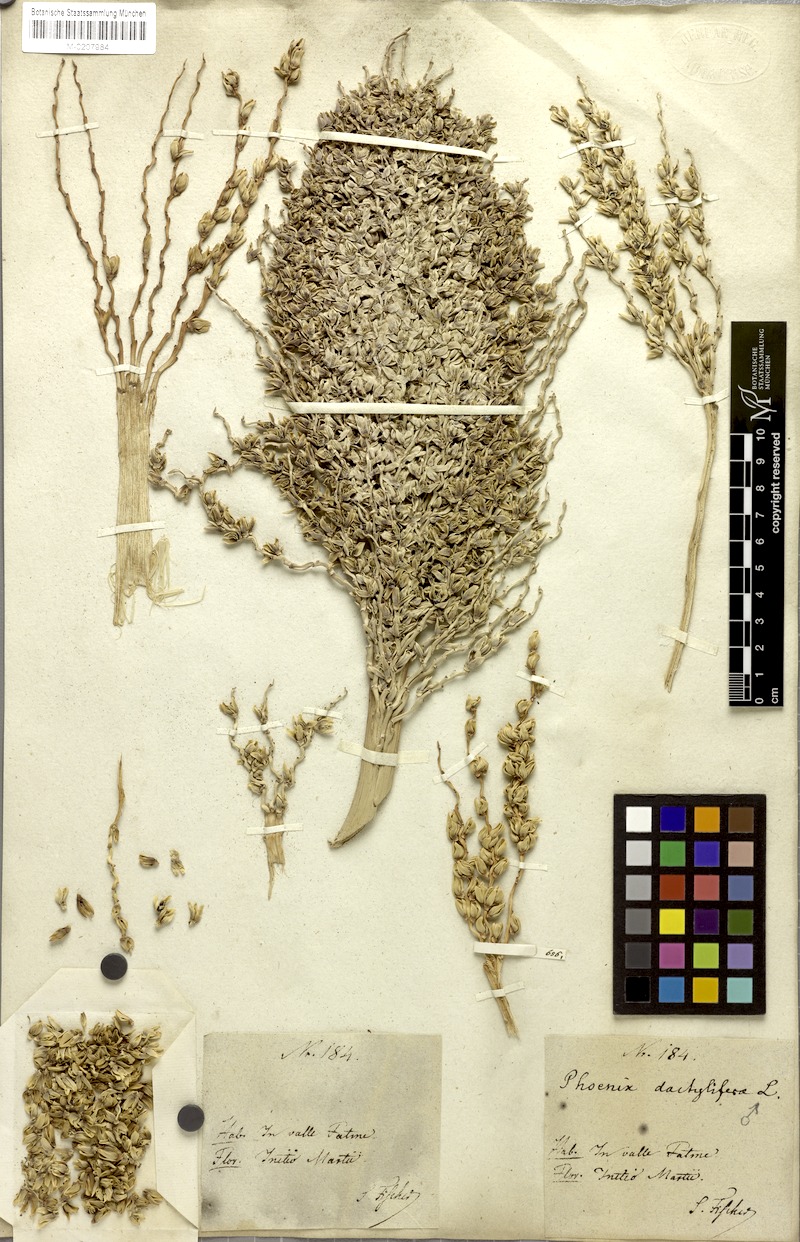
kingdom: Plantae
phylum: Tracheophyta
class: Liliopsida
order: Arecales
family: Arecaceae
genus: Phoenix
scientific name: Phoenix dactylifera
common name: Date palm
